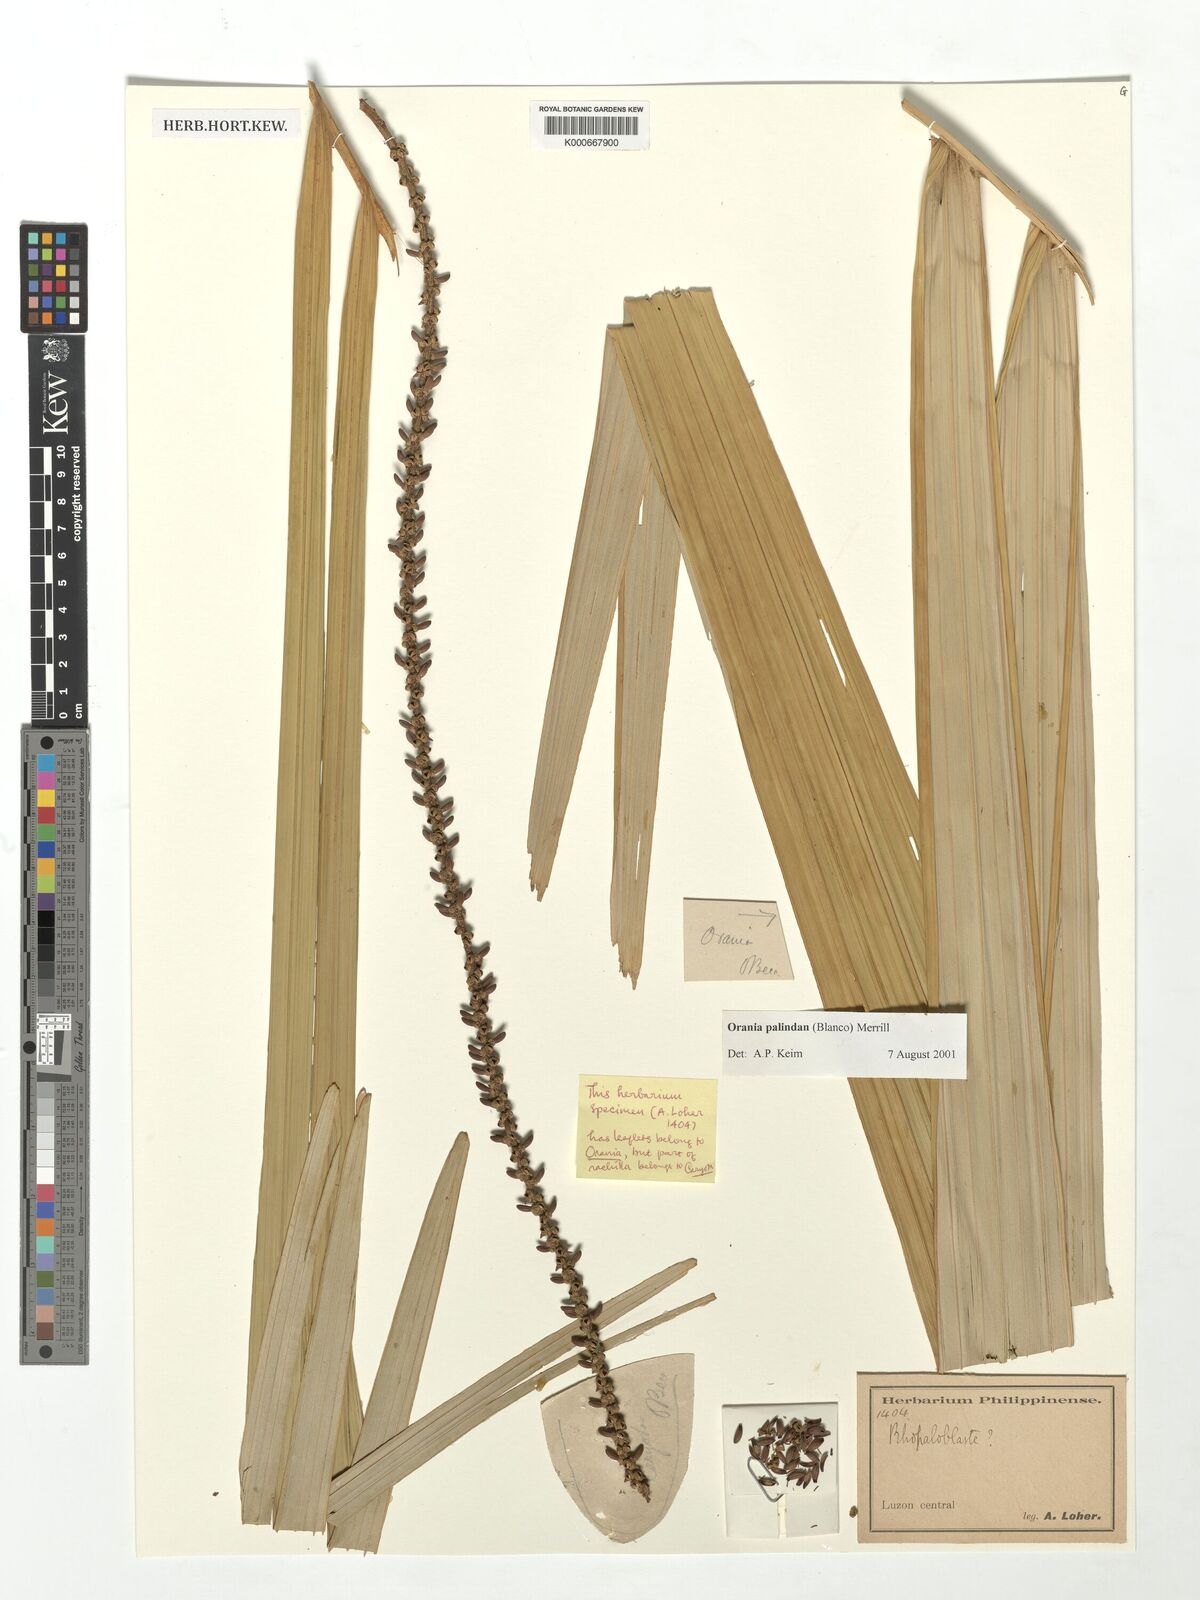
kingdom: Plantae
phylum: Tracheophyta
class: Liliopsida
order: Arecales
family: Arecaceae
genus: Orania
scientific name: Orania palindan
